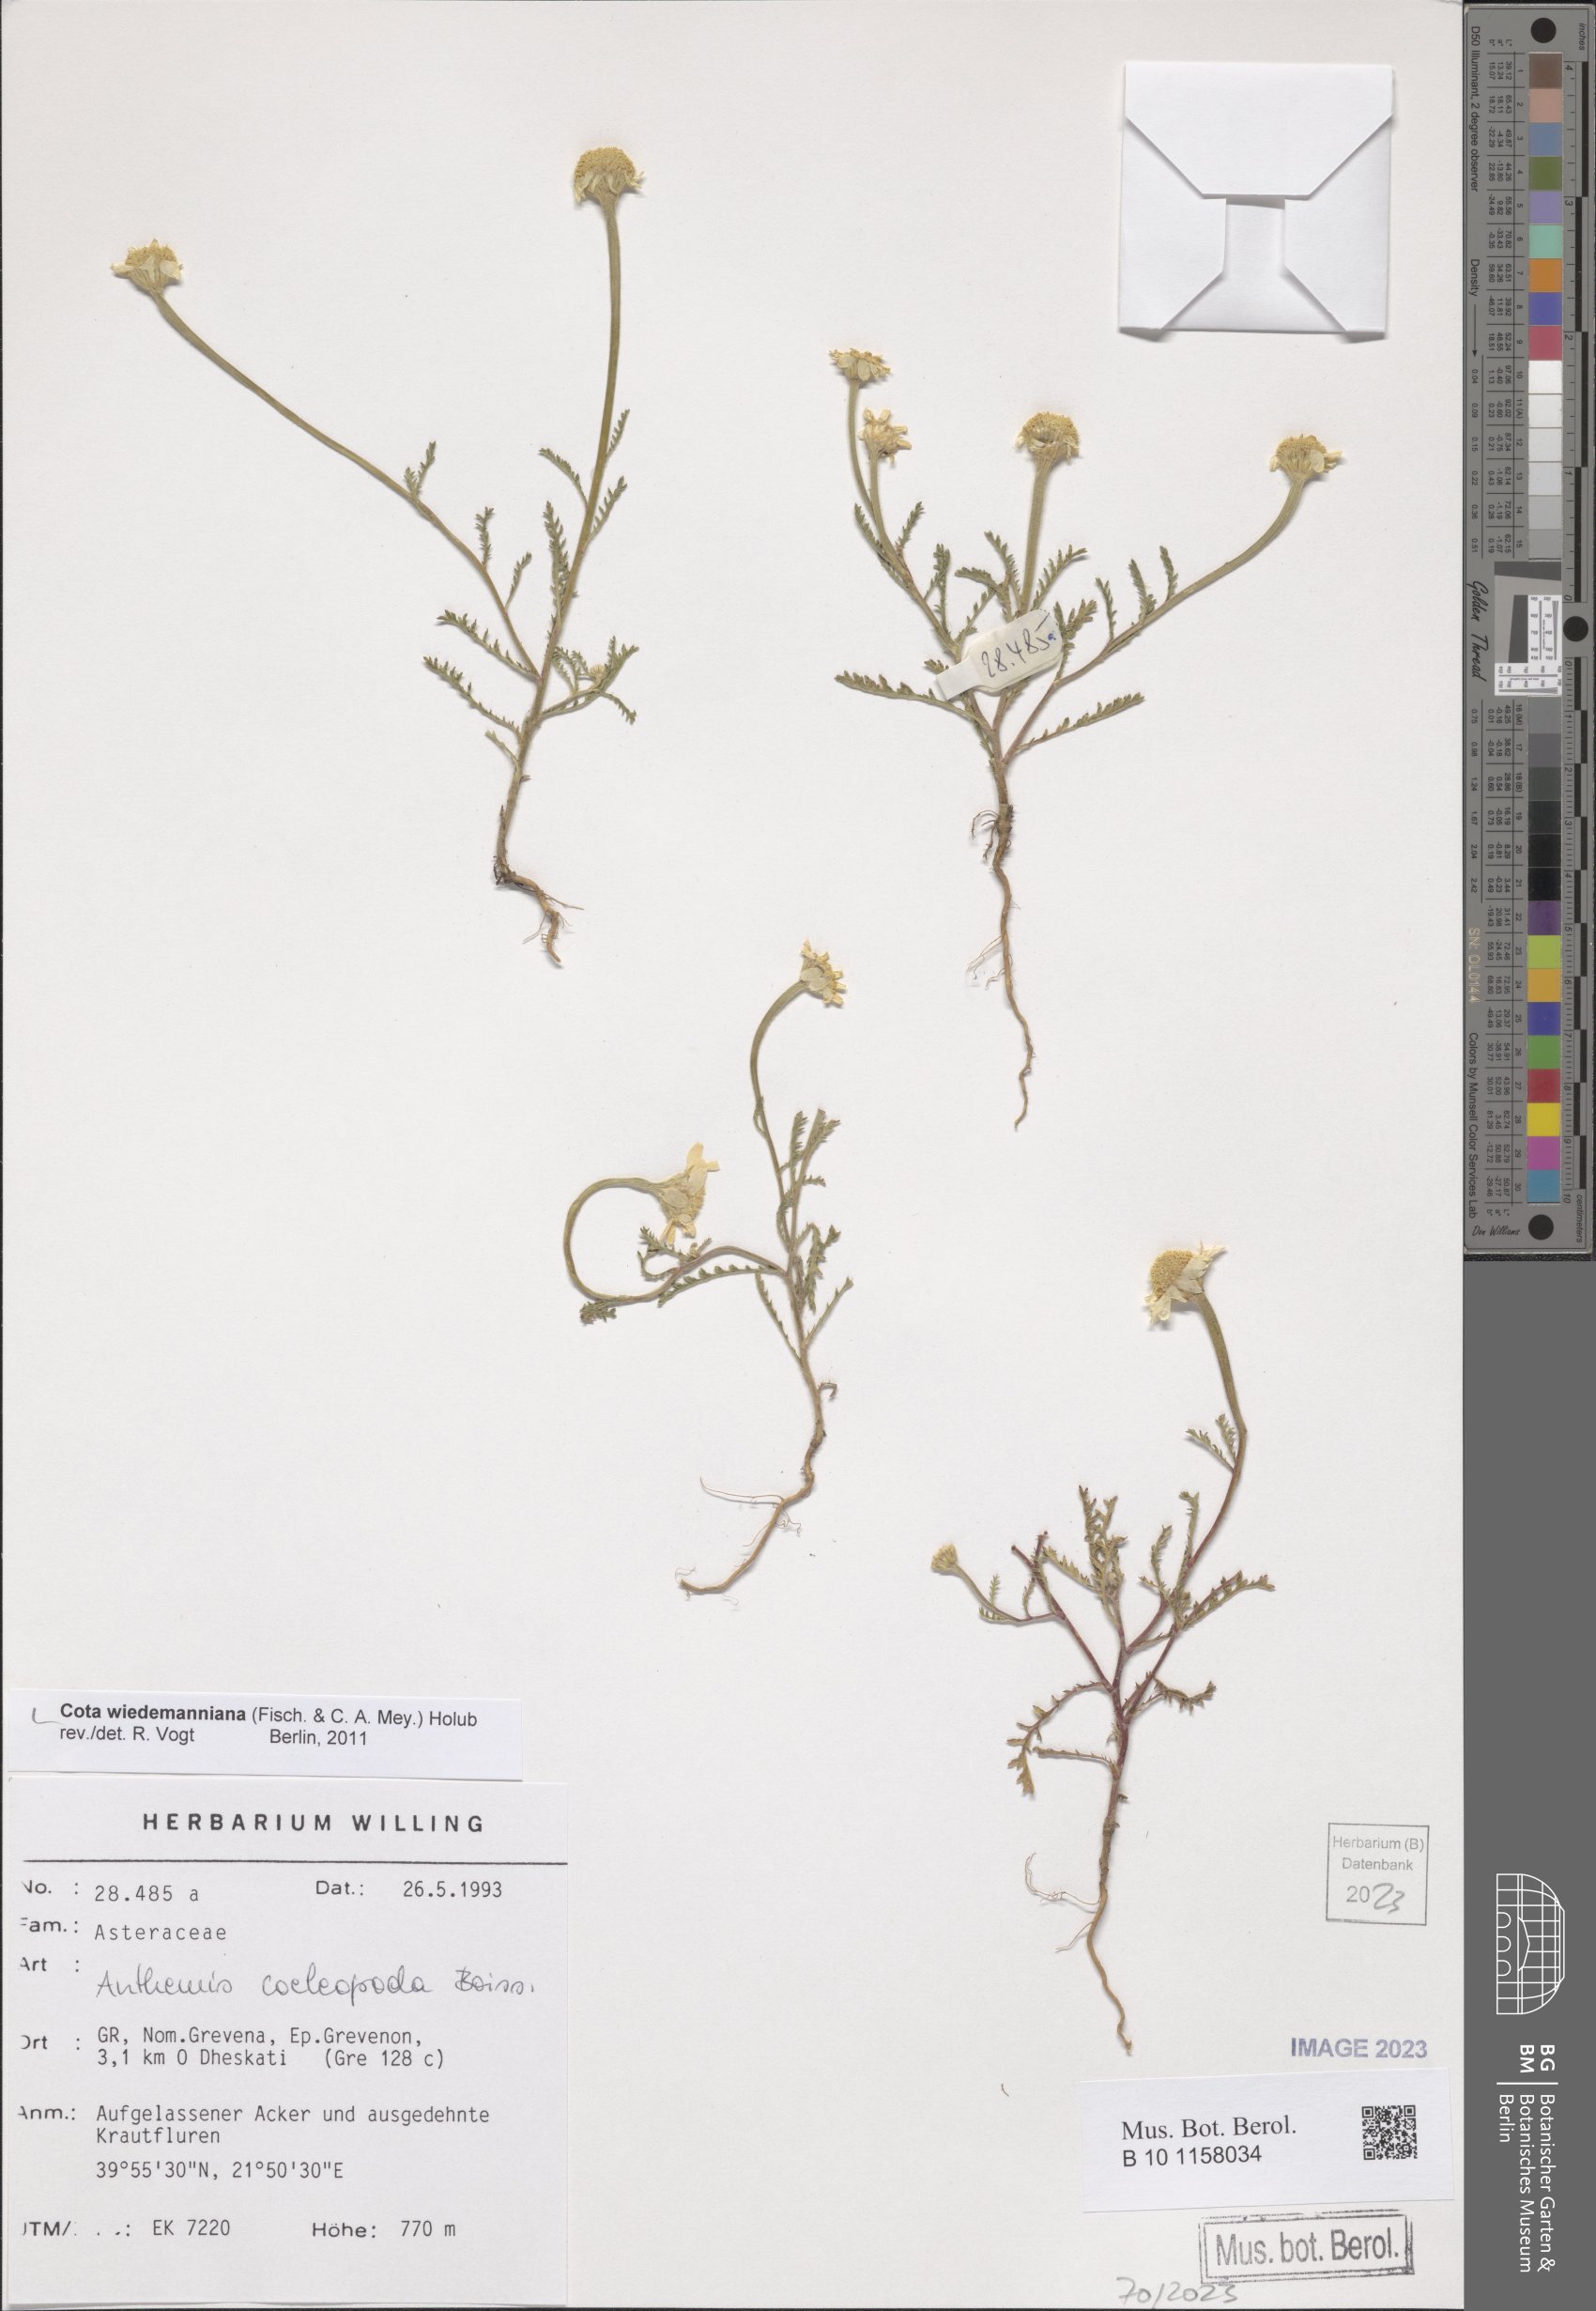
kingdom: Plantae
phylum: Tracheophyta
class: Magnoliopsida
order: Asterales
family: Asteraceae
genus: Cota
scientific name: Cota wiedemanniana
